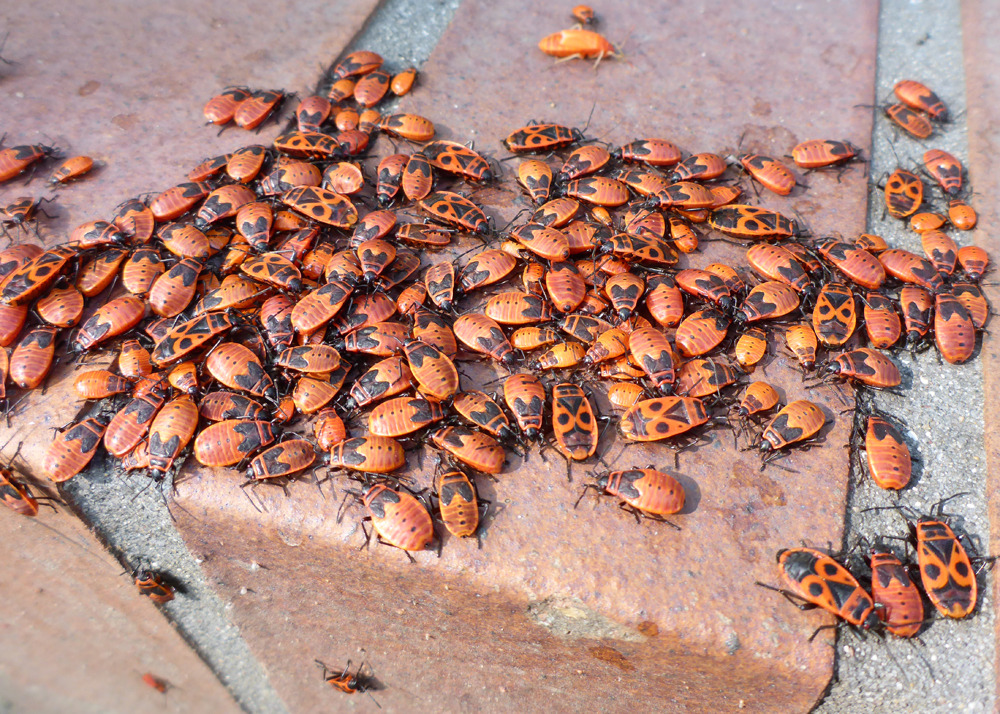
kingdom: Animalia
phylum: Arthropoda
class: Insecta
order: Hemiptera
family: Pyrrhocoridae
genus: Pyrrhocoris
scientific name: Pyrrhocoris apterus
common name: Firebug
